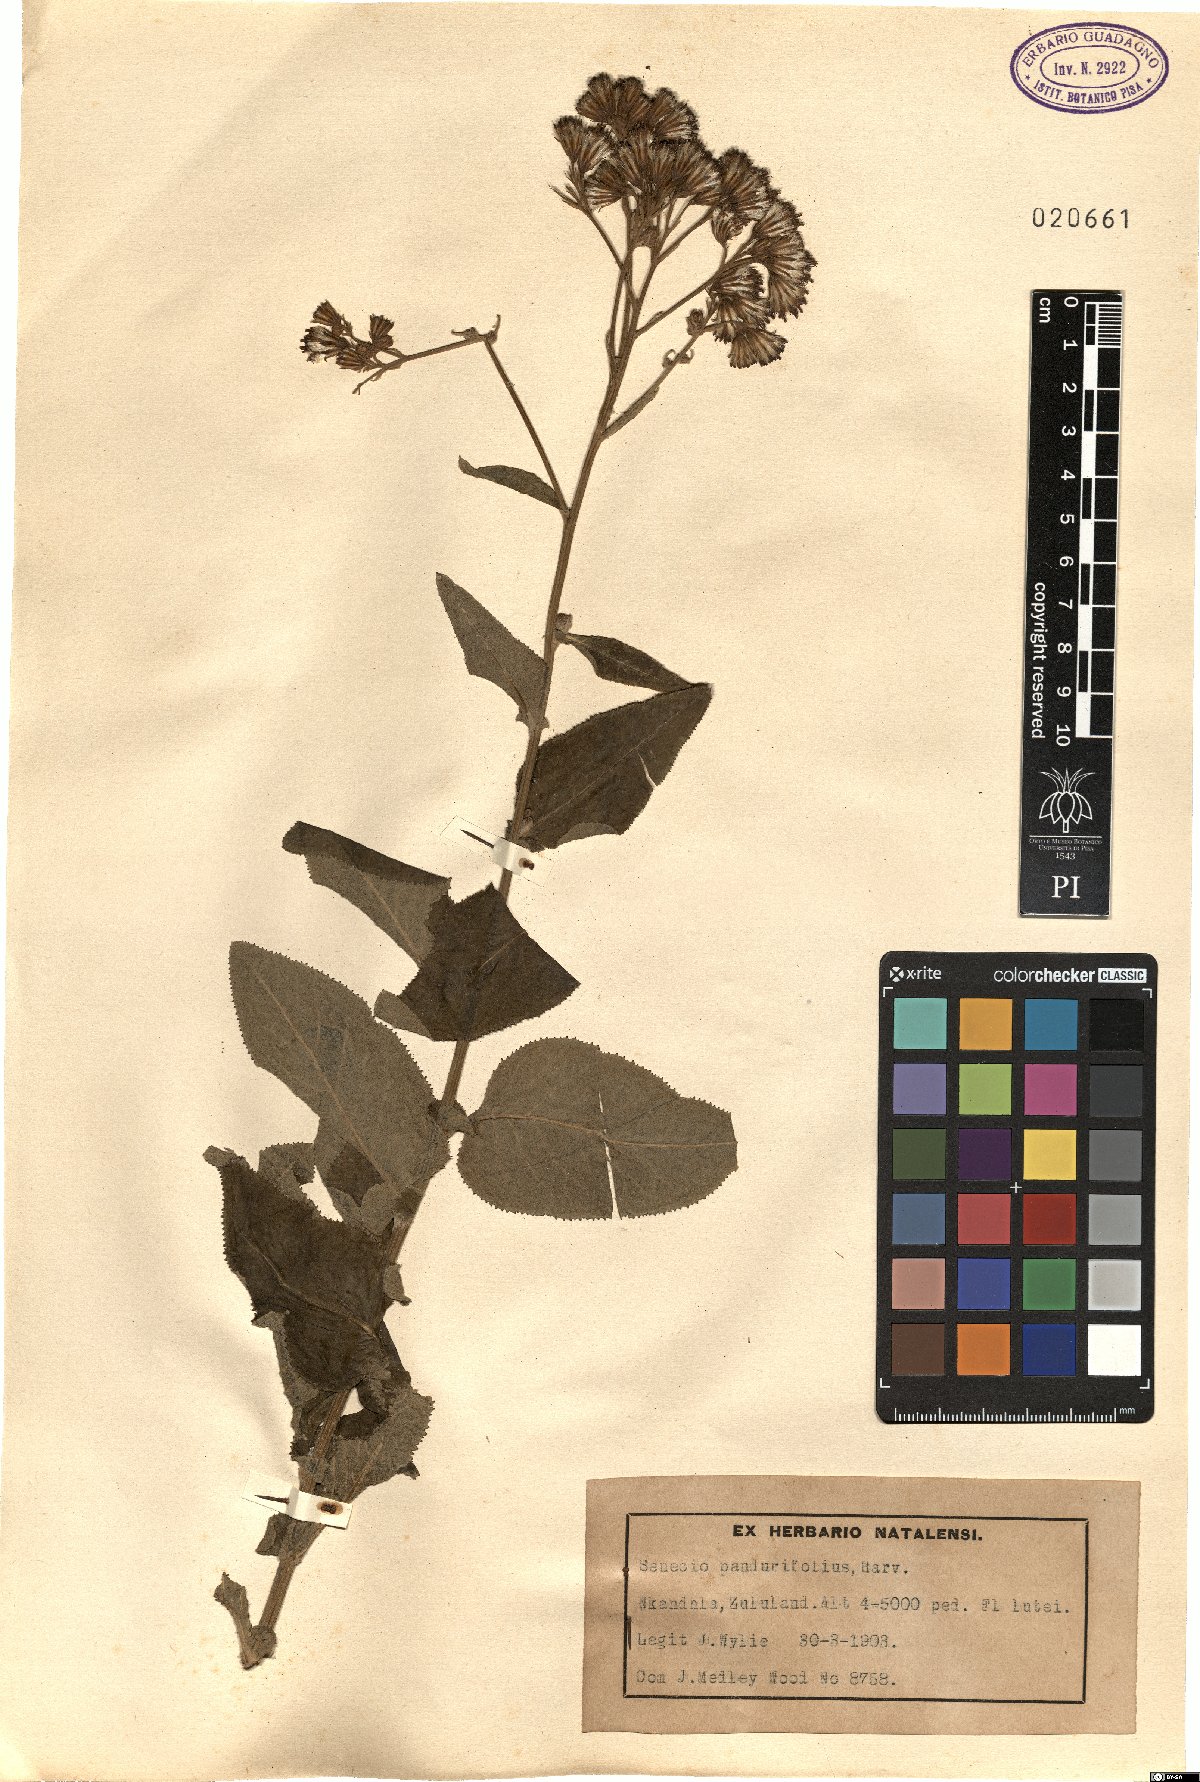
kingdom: Plantae
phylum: Tracheophyta
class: Magnoliopsida
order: Asterales
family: Asteraceae
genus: Senecio
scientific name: Senecio panduriformis
